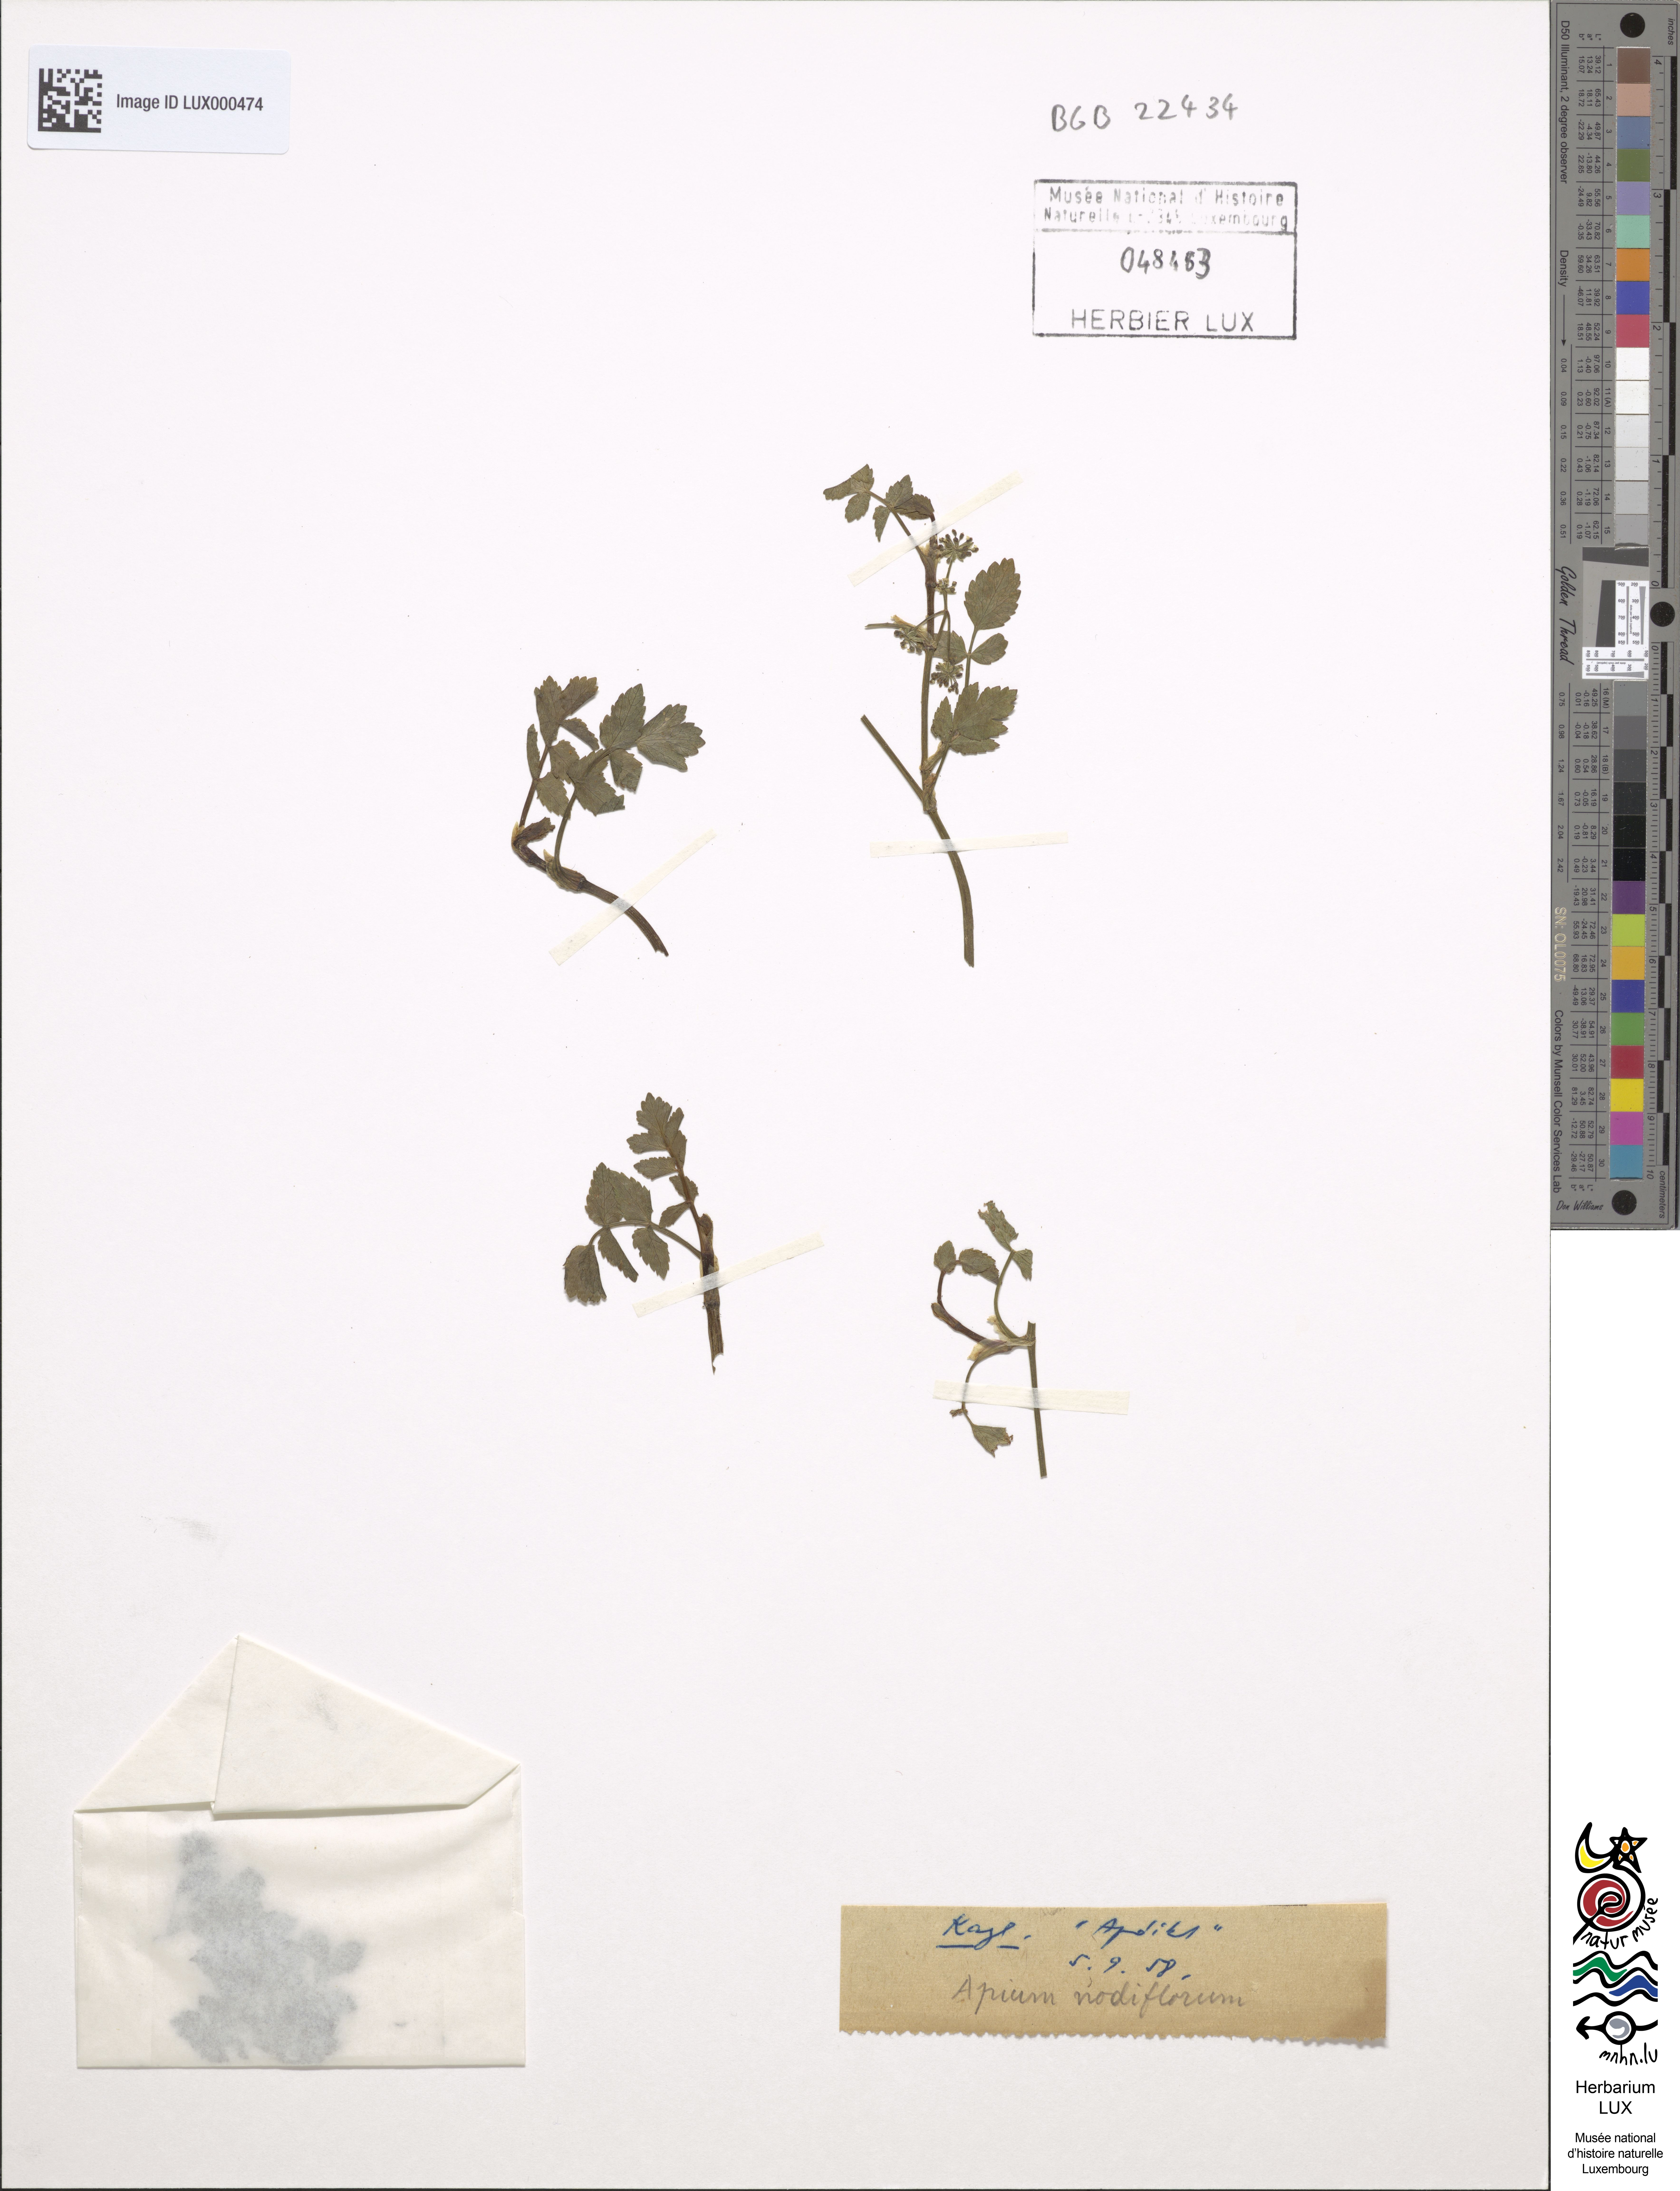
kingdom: Plantae
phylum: Tracheophyta
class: Magnoliopsida
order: Apiales
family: Apiaceae
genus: Helosciadium
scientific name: Helosciadium nodiflorum
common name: Fool's-watercress
